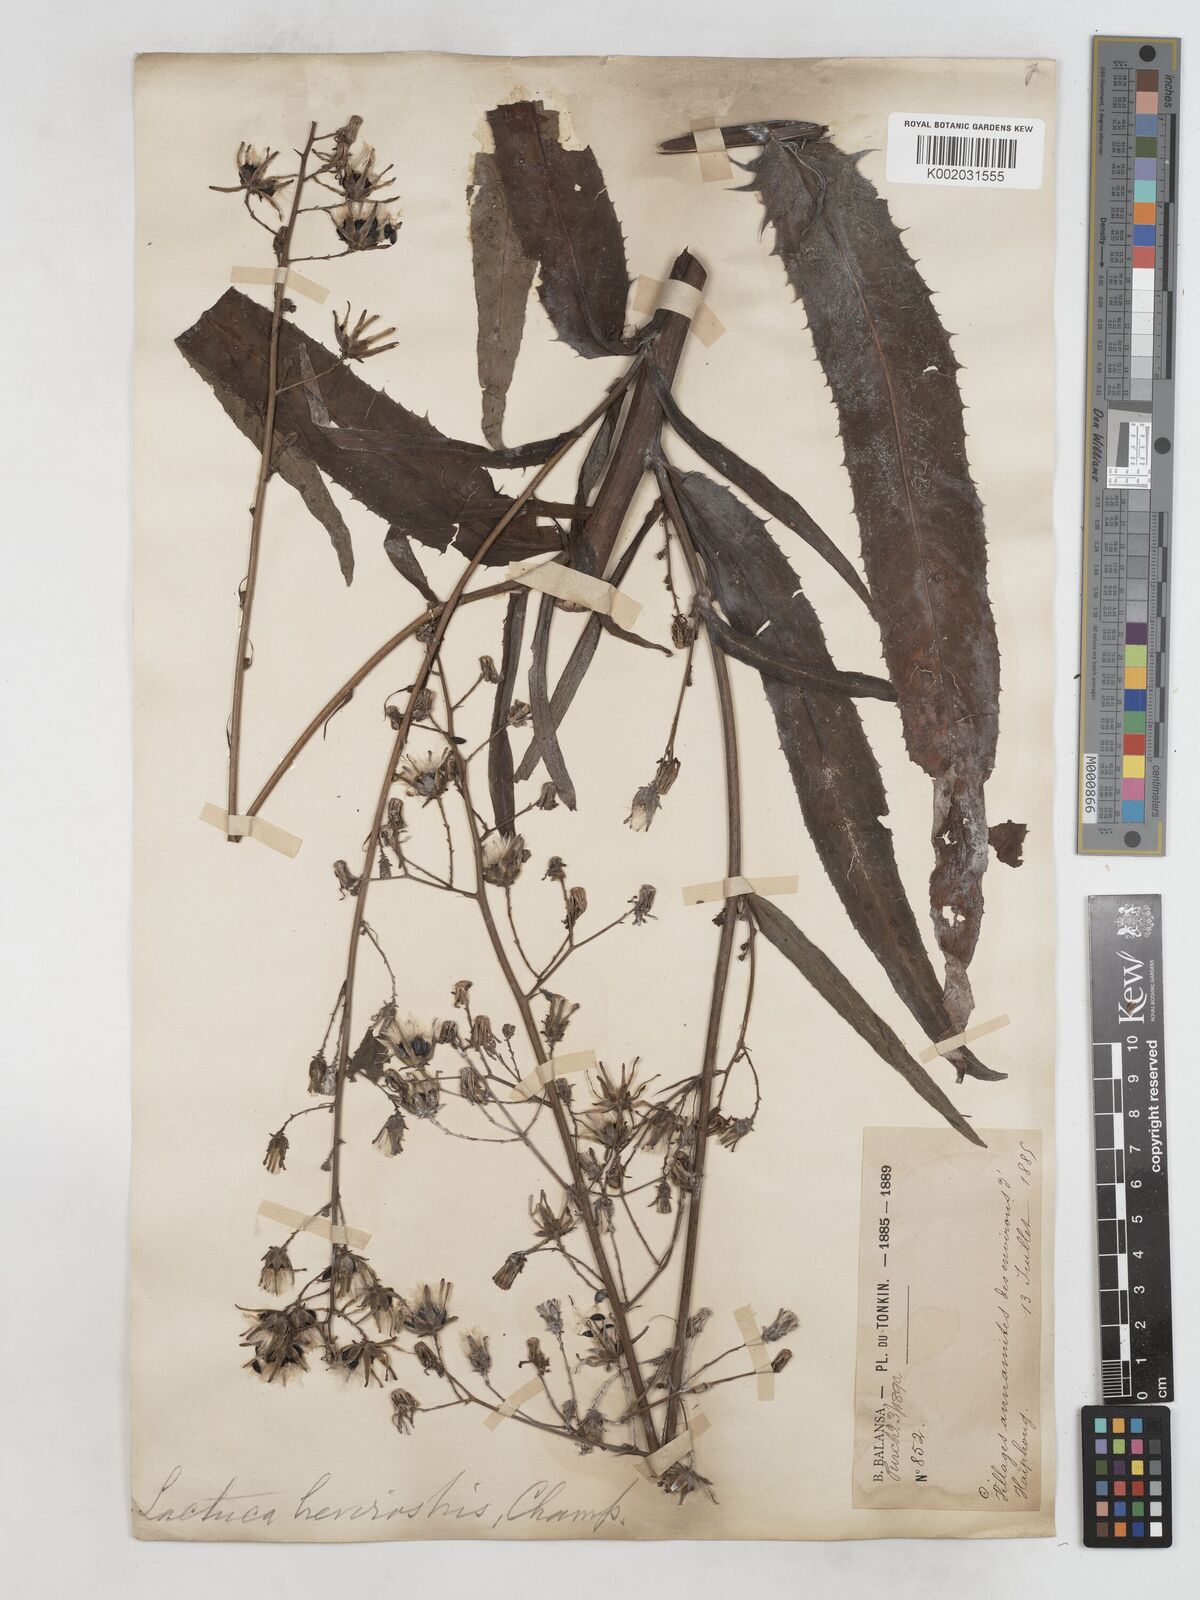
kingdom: Plantae
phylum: Tracheophyta
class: Magnoliopsida
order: Asterales
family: Asteraceae
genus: Lactuca
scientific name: Lactuca indica
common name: Wild lettuce
